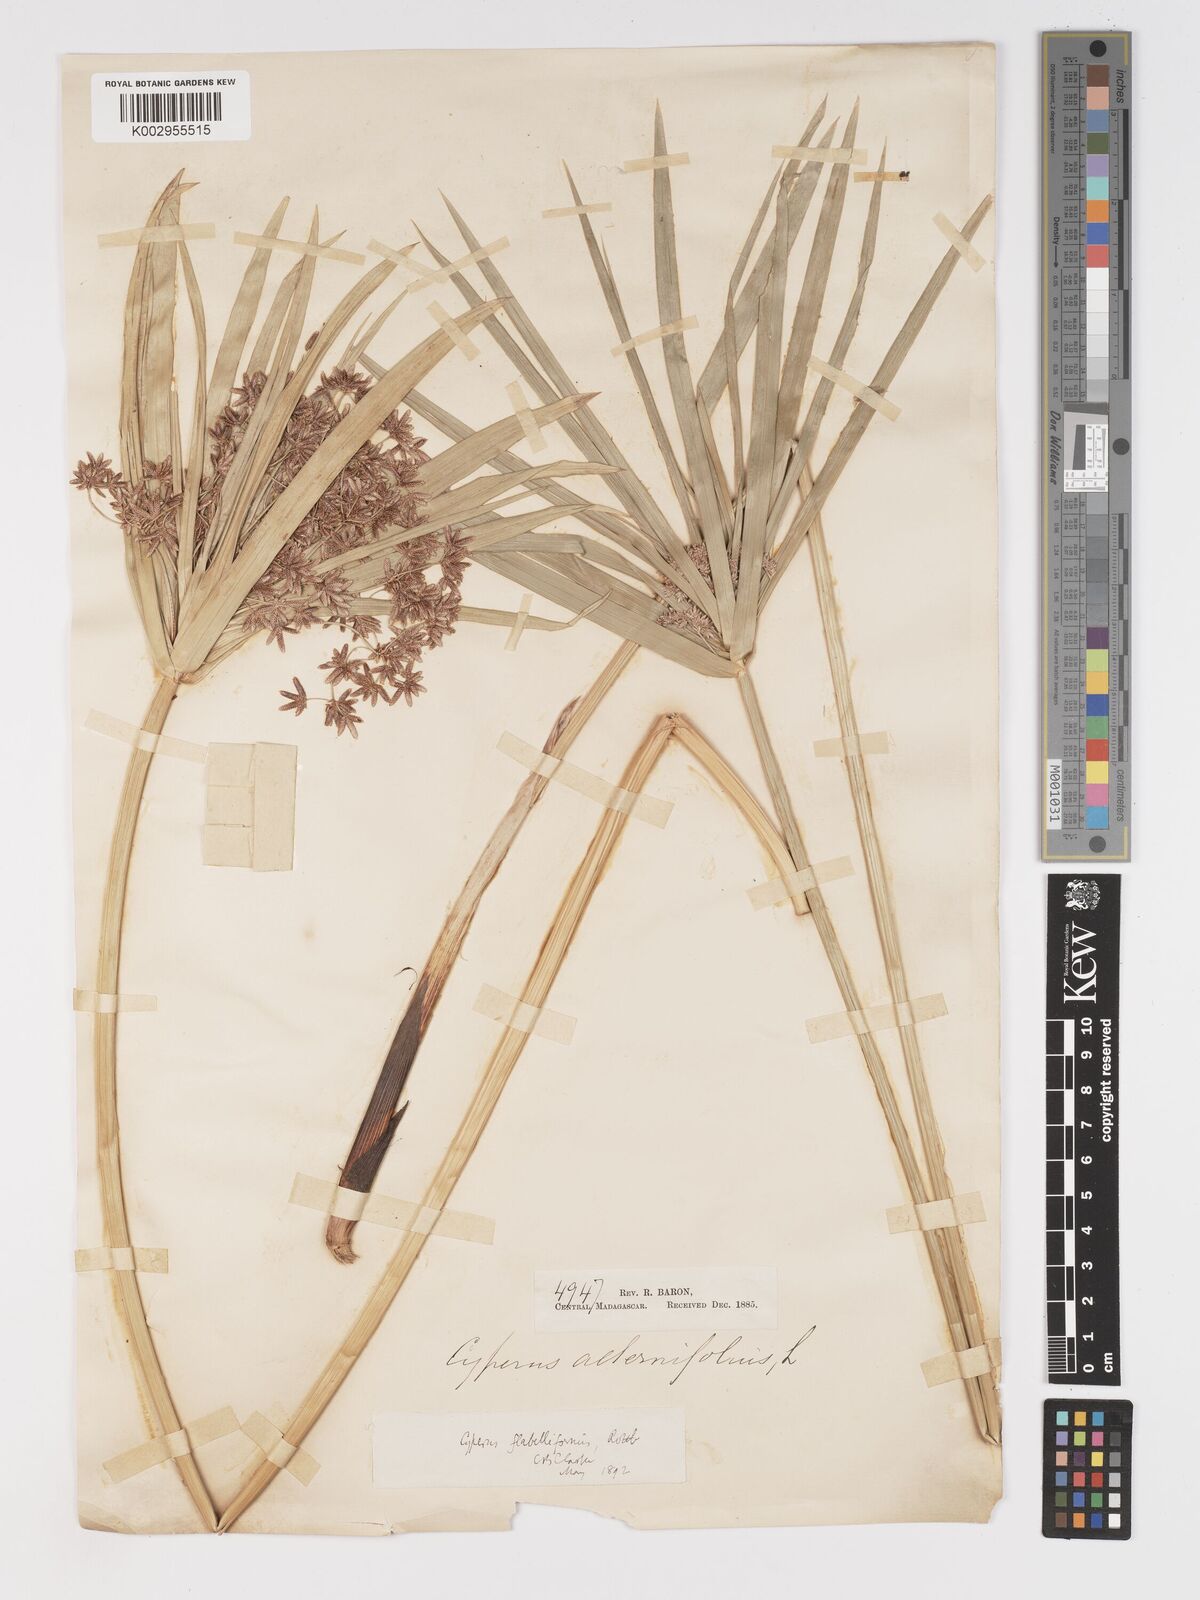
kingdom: Plantae
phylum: Tracheophyta
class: Liliopsida
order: Poales
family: Cyperaceae
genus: Cyperus
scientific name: Cyperus alternifolius
